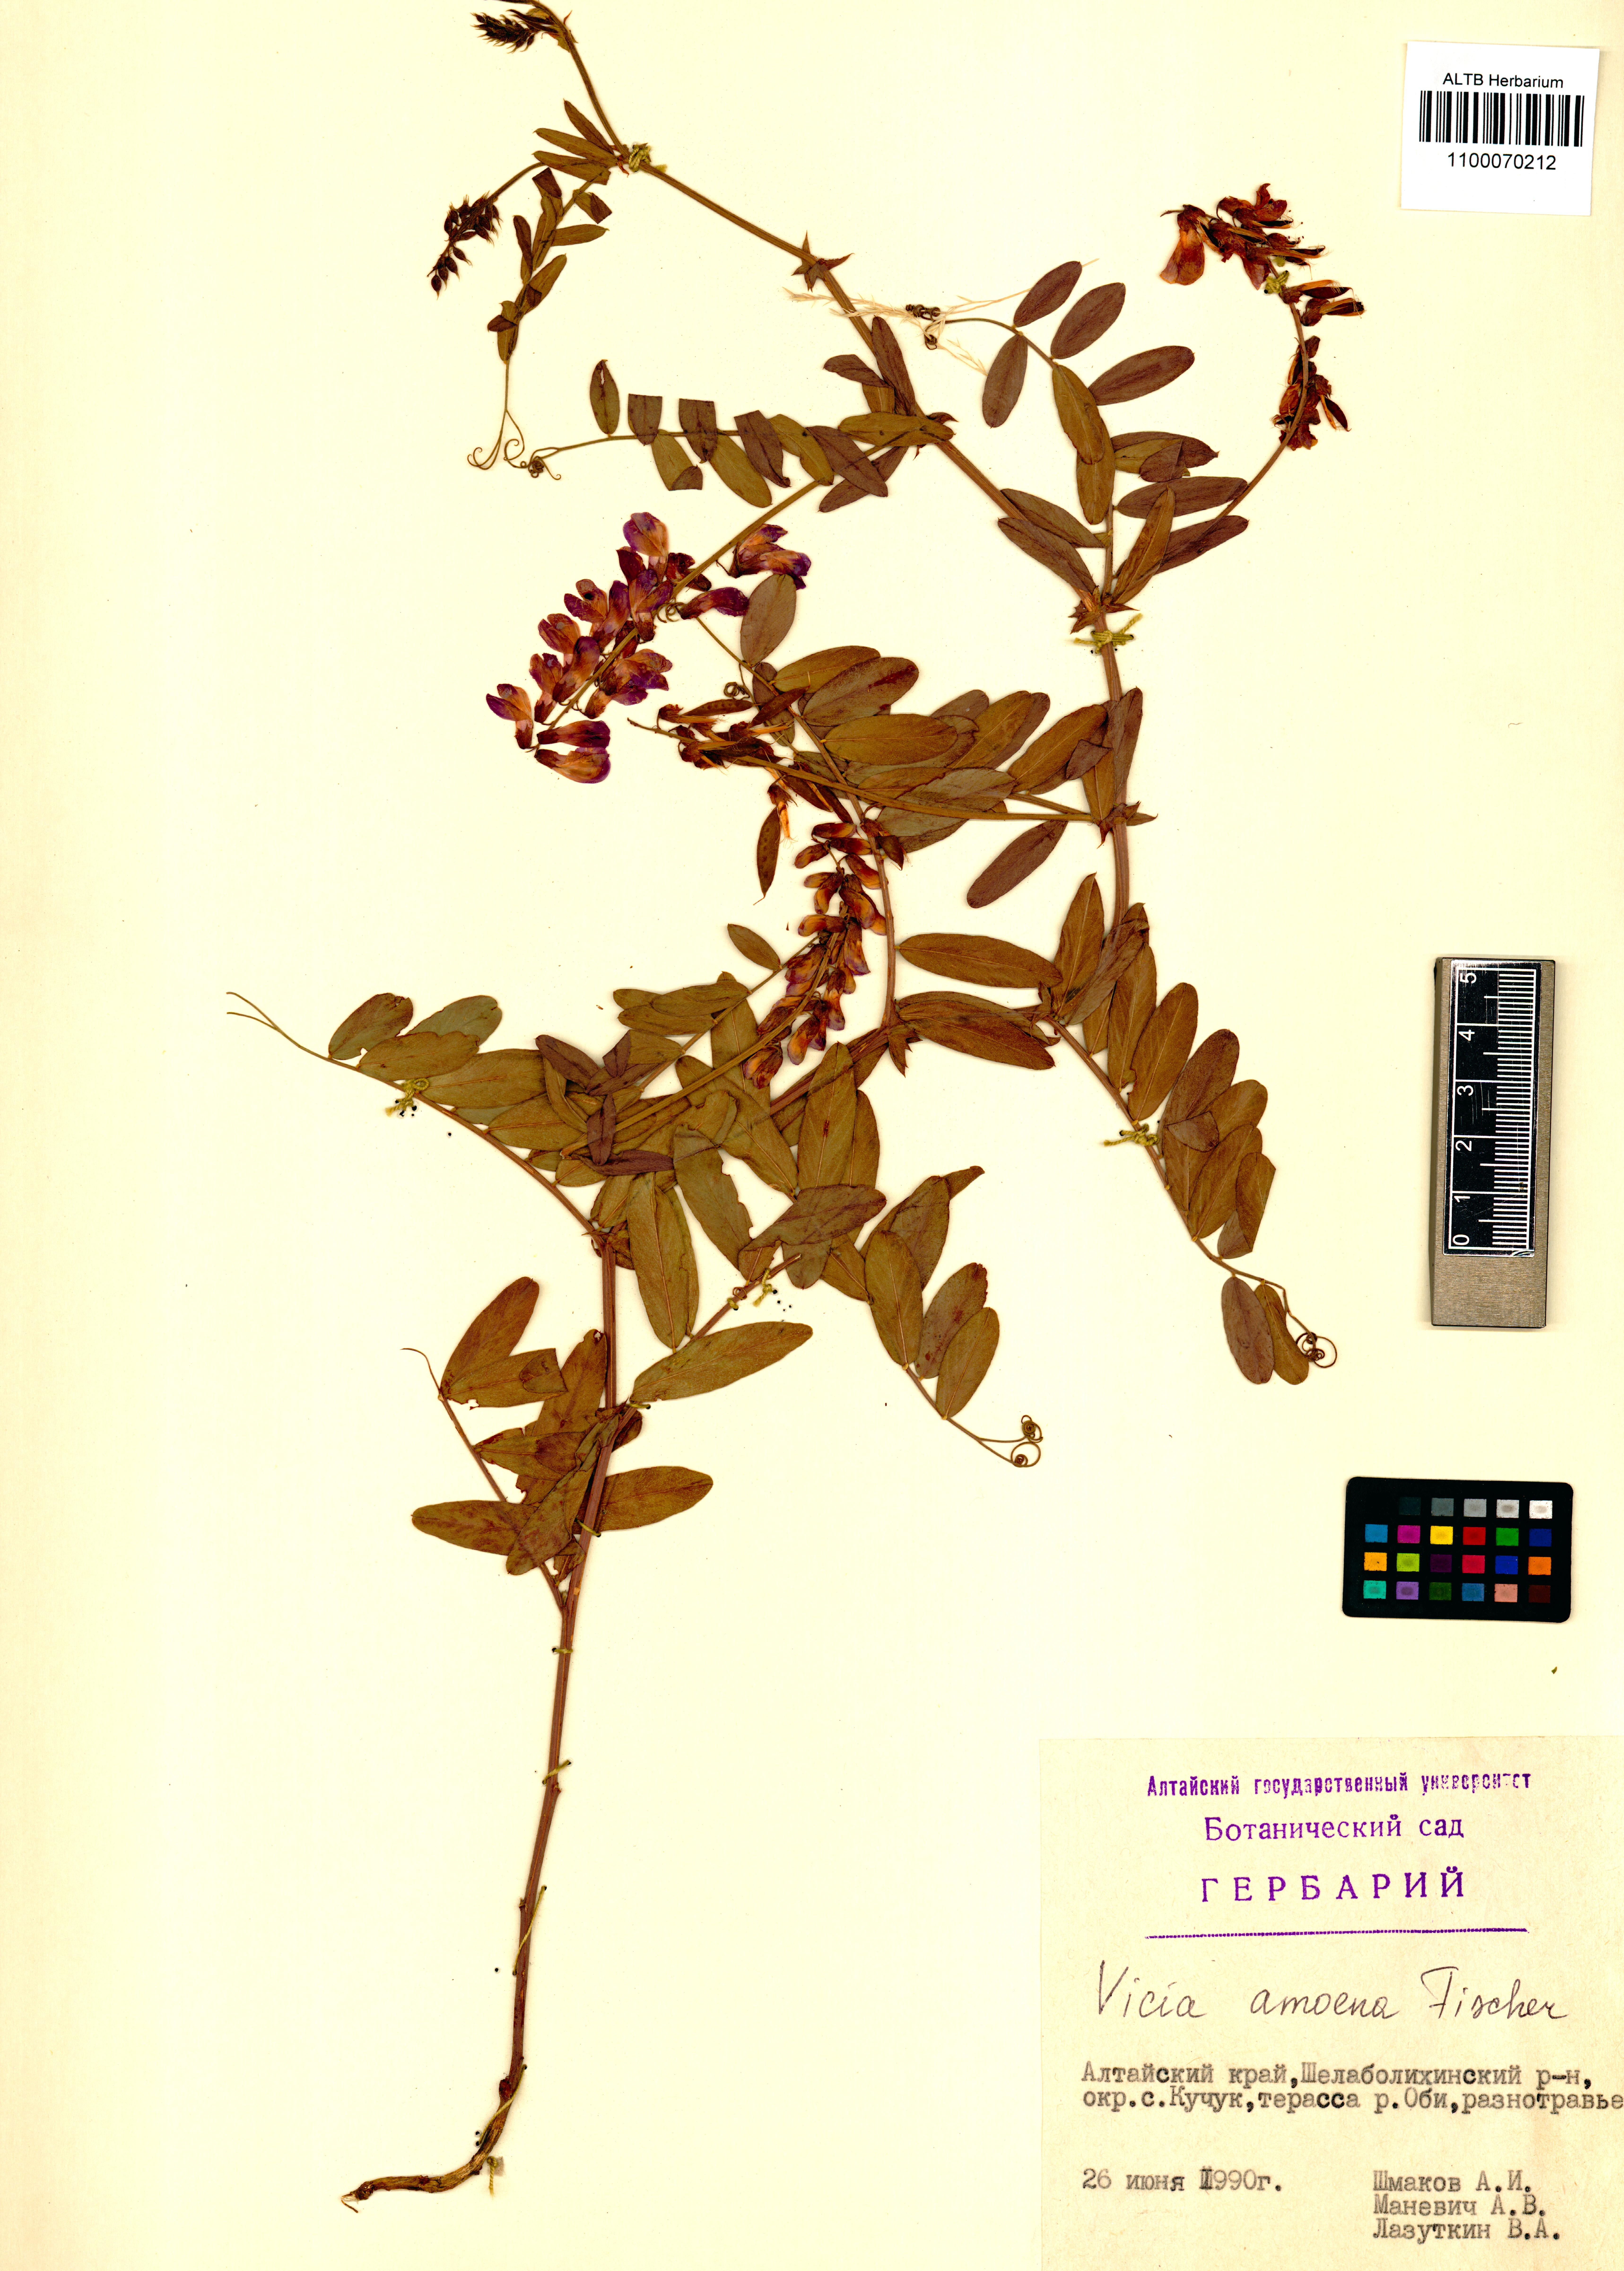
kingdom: Plantae
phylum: Tracheophyta
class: Magnoliopsida
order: Fabales
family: Fabaceae
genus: Vicia
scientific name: Vicia amoena
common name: Cheder ebs
